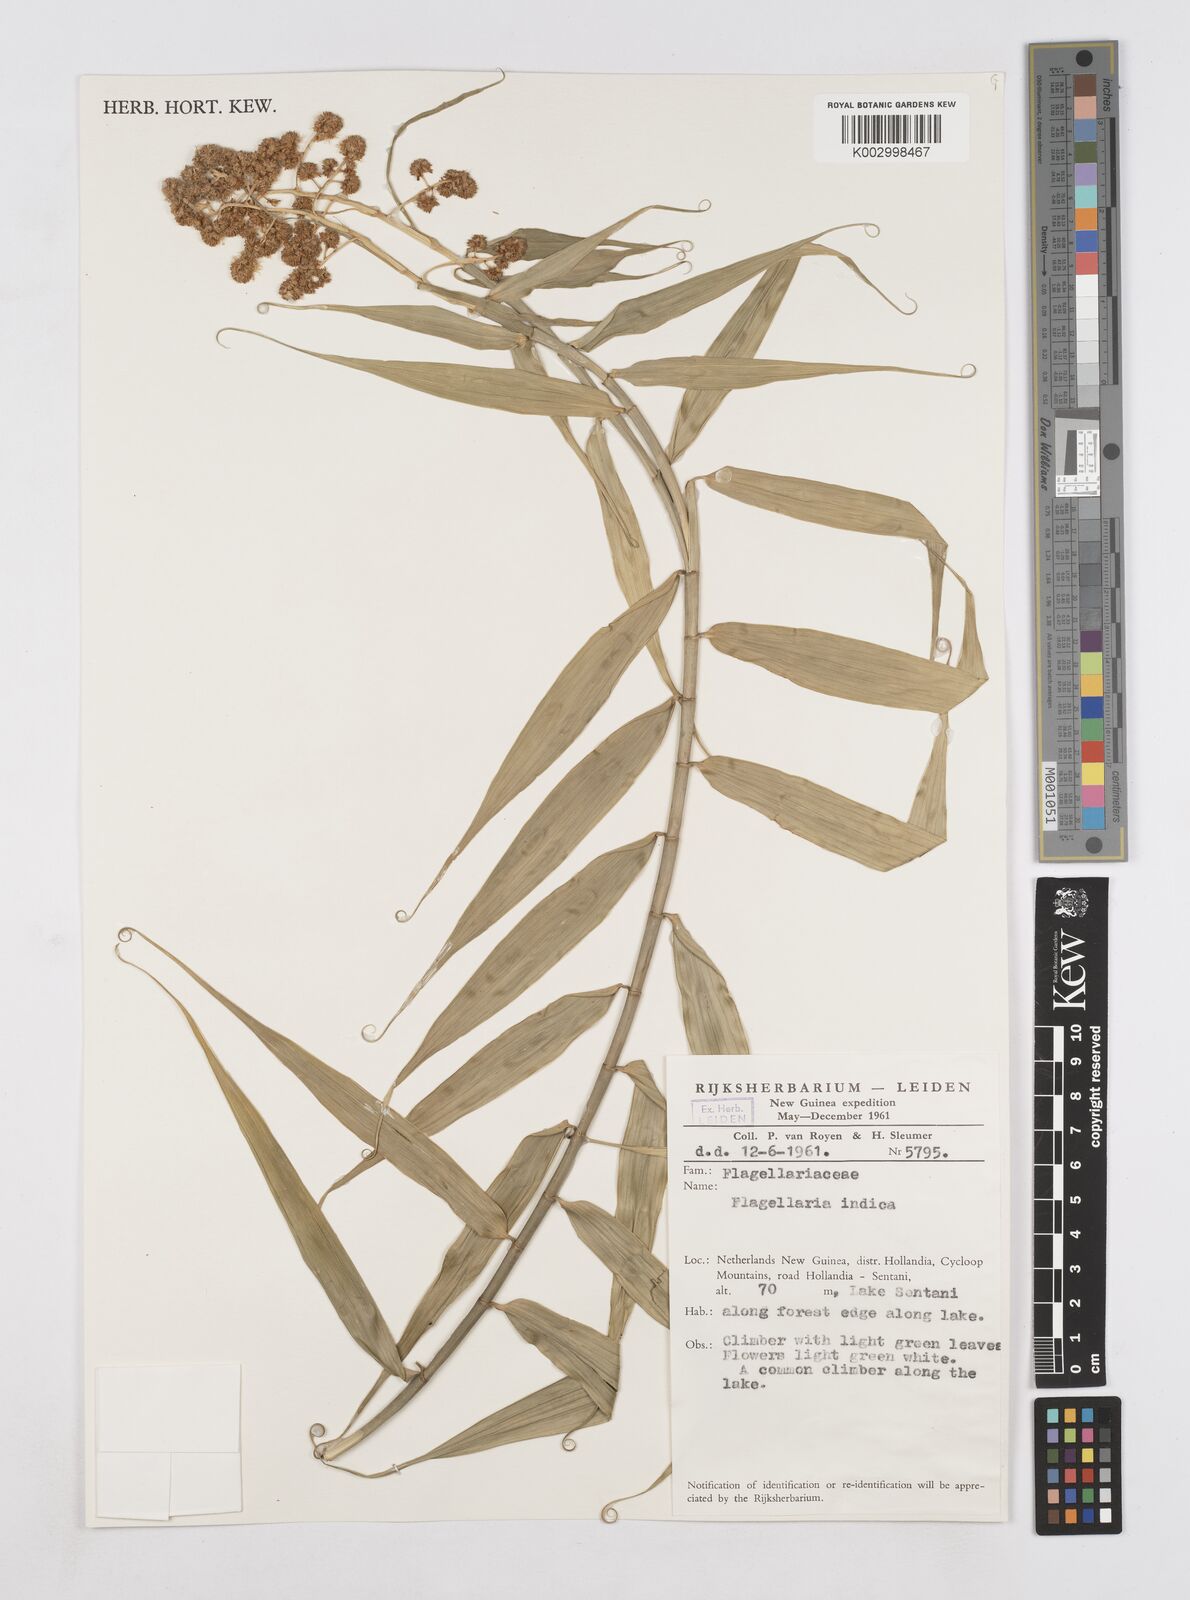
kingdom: Plantae
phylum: Tracheophyta
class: Liliopsida
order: Poales
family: Flagellariaceae
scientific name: Flagellariaceae
